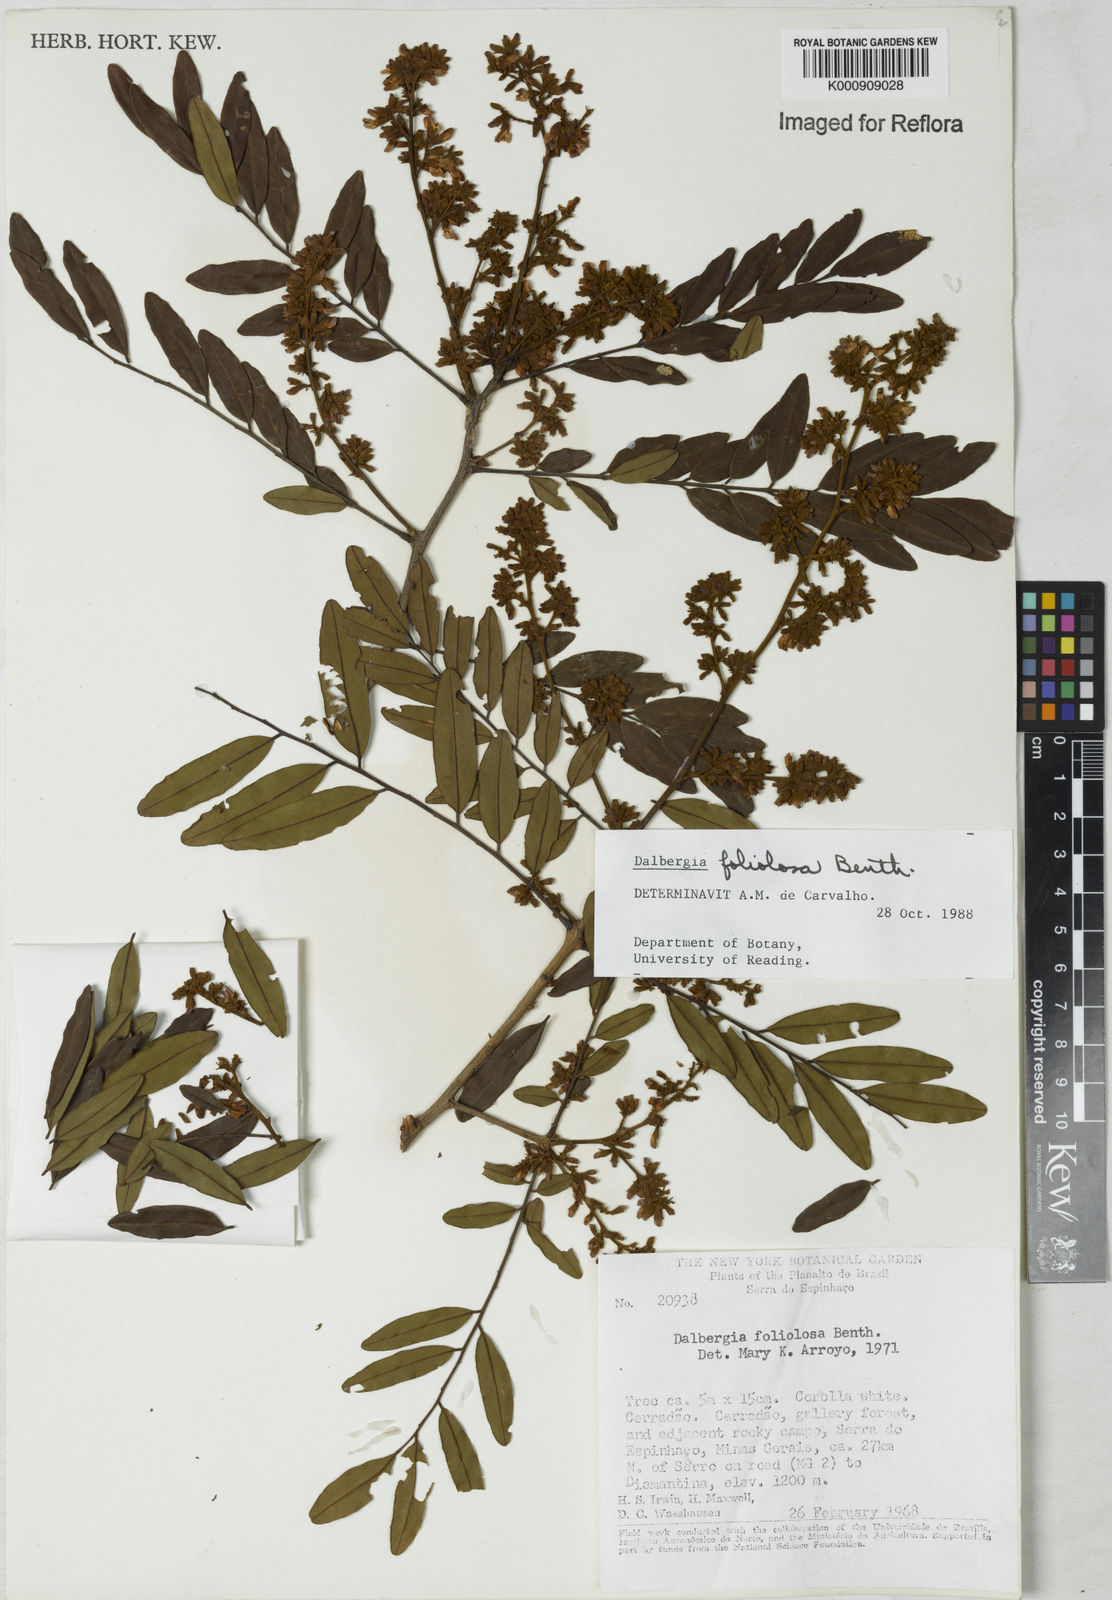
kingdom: Plantae
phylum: Tracheophyta
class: Magnoliopsida
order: Fabales
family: Fabaceae
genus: Dalbergia
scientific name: Dalbergia foliolosa
